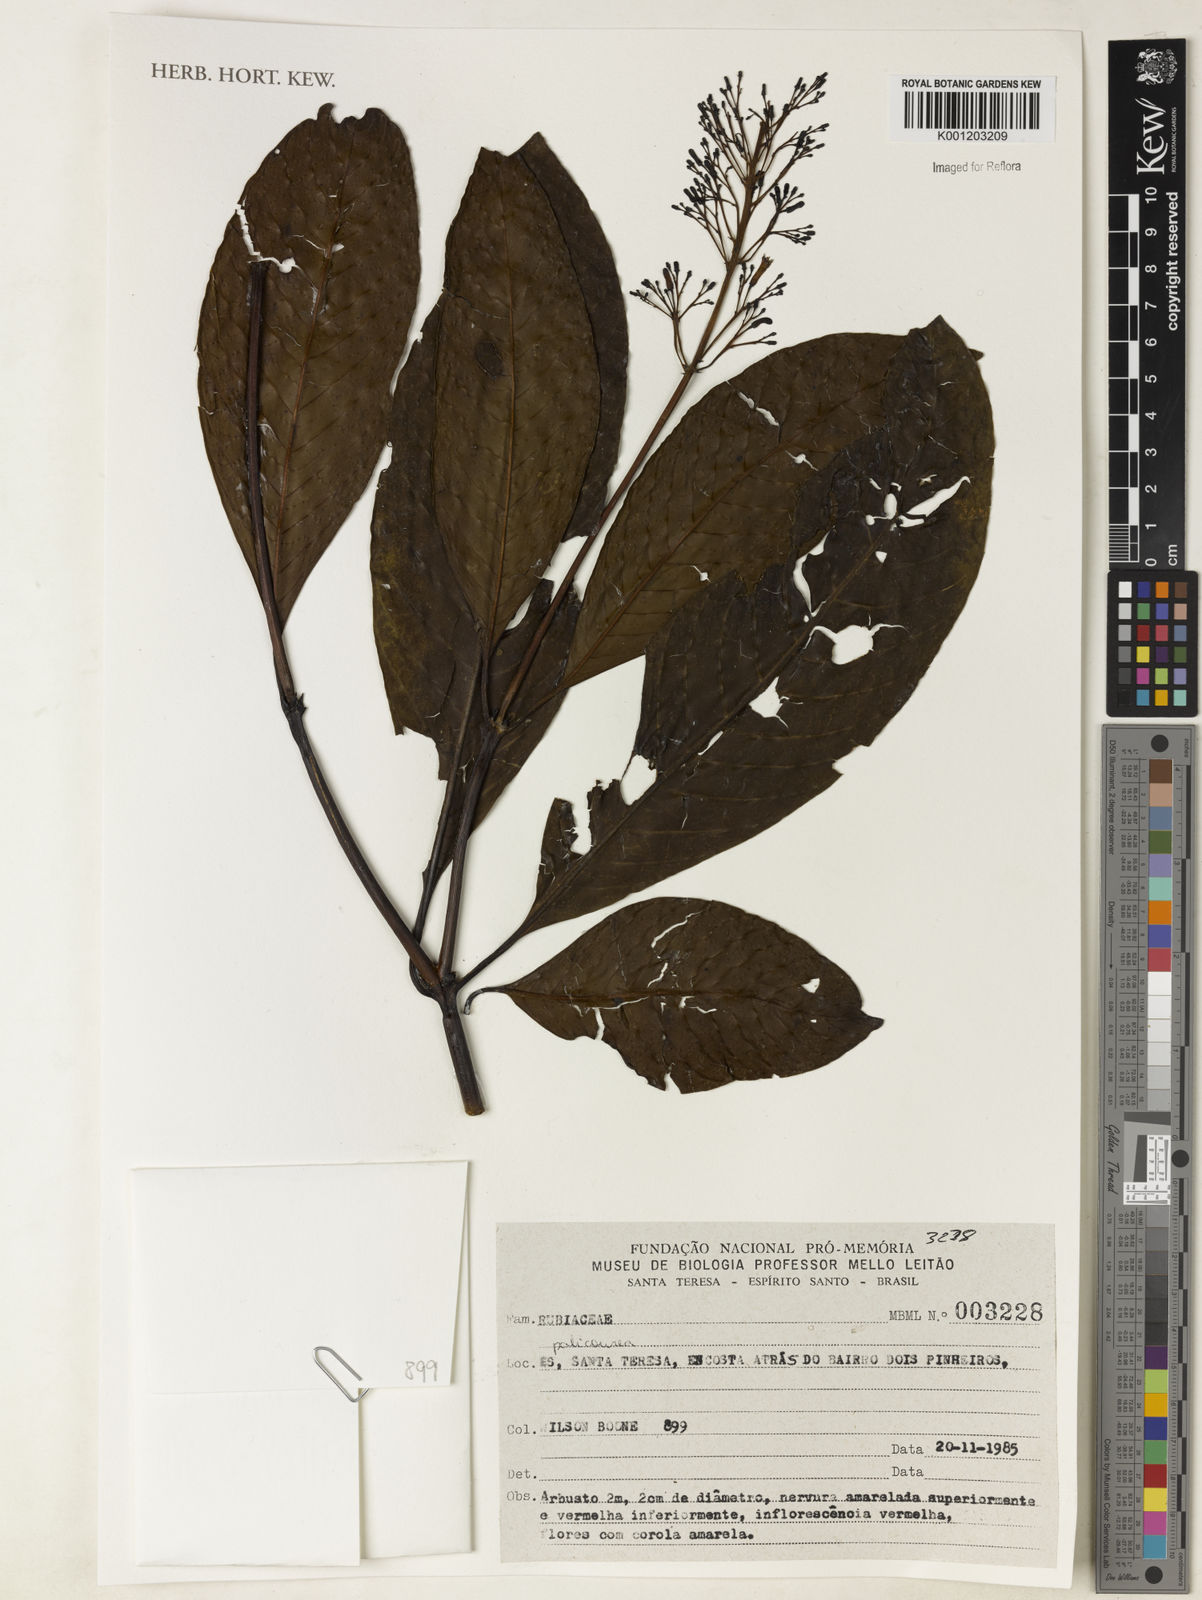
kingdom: Plantae
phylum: Tracheophyta
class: Magnoliopsida
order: Gentianales
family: Rubiaceae
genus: Palicourea
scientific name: Palicourea
